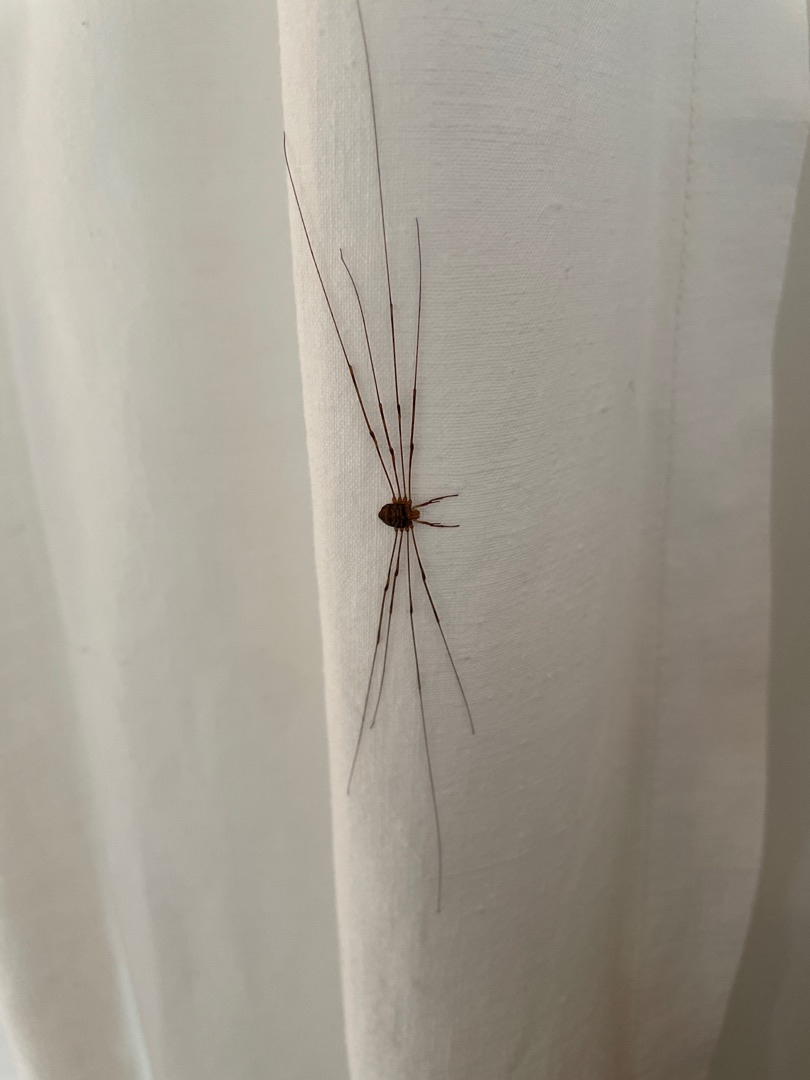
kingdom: Animalia
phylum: Arthropoda
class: Arachnida
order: Opiliones
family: Phalangiidae
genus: Dicranopalpus
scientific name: Dicranopalpus ramosus
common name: Gaffelmejer
